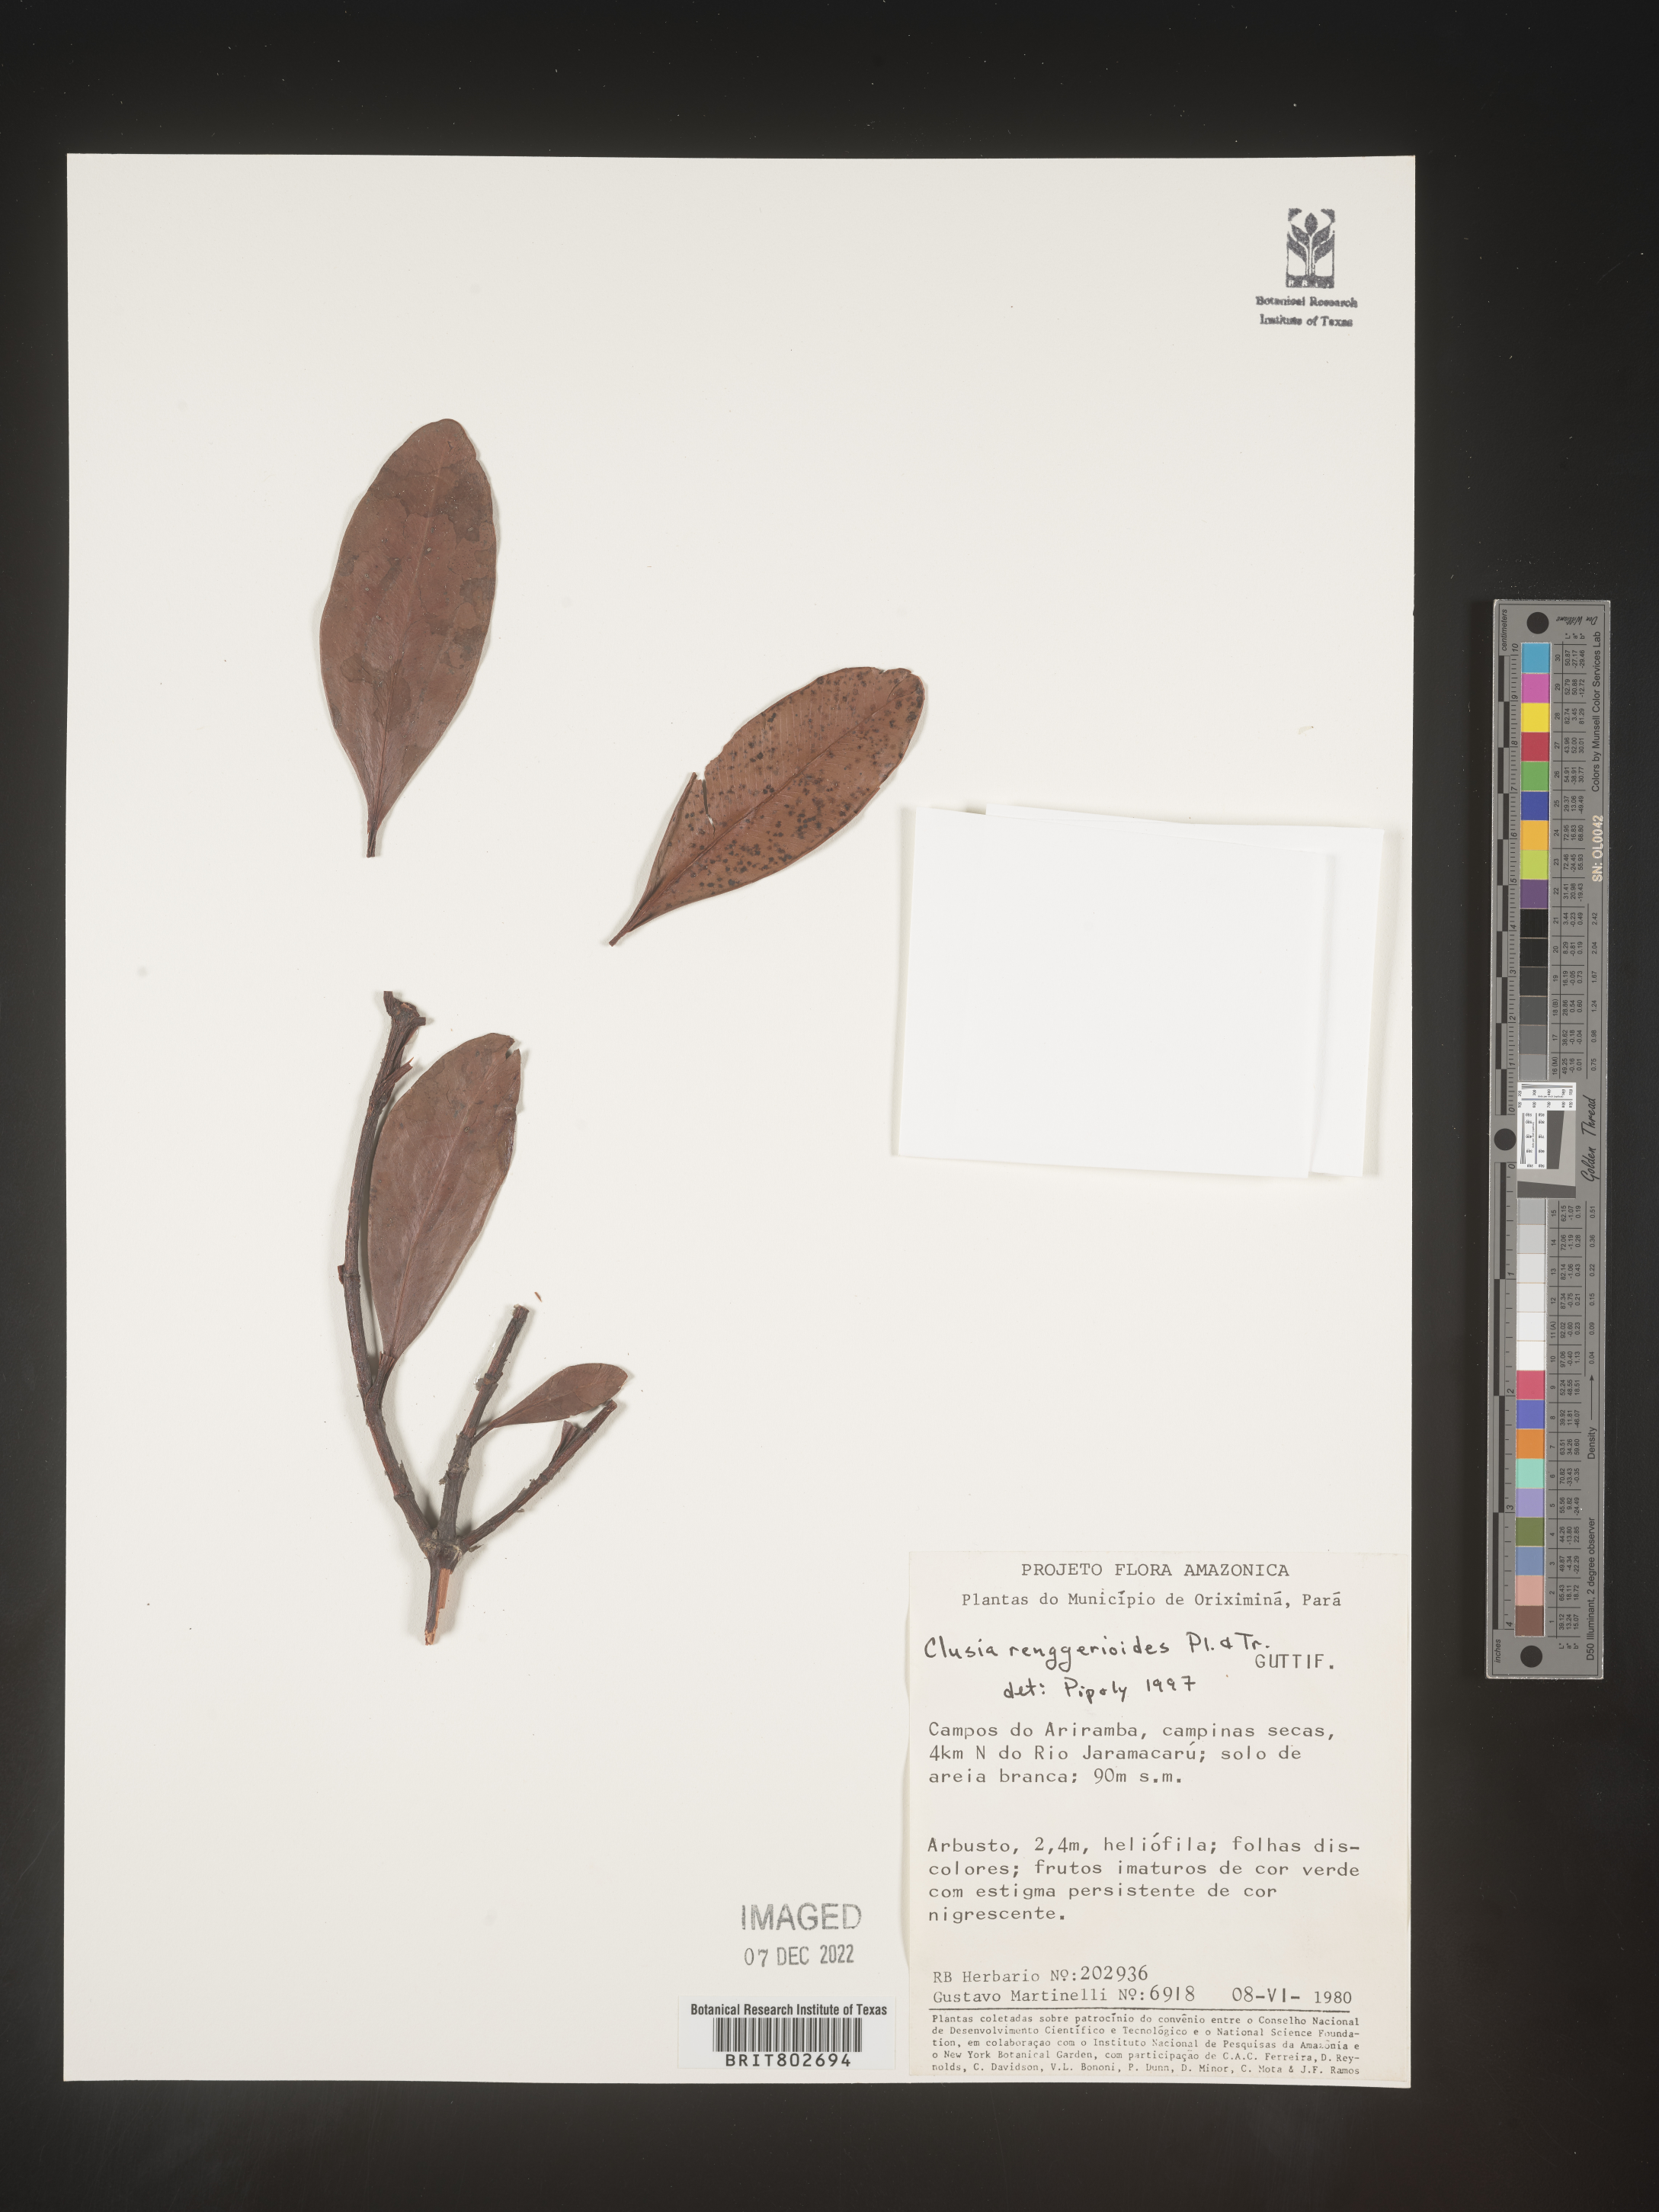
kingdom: Plantae
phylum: Tracheophyta
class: Magnoliopsida
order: Malpighiales
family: Clusiaceae
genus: Clusia
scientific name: Clusia renggerioides
